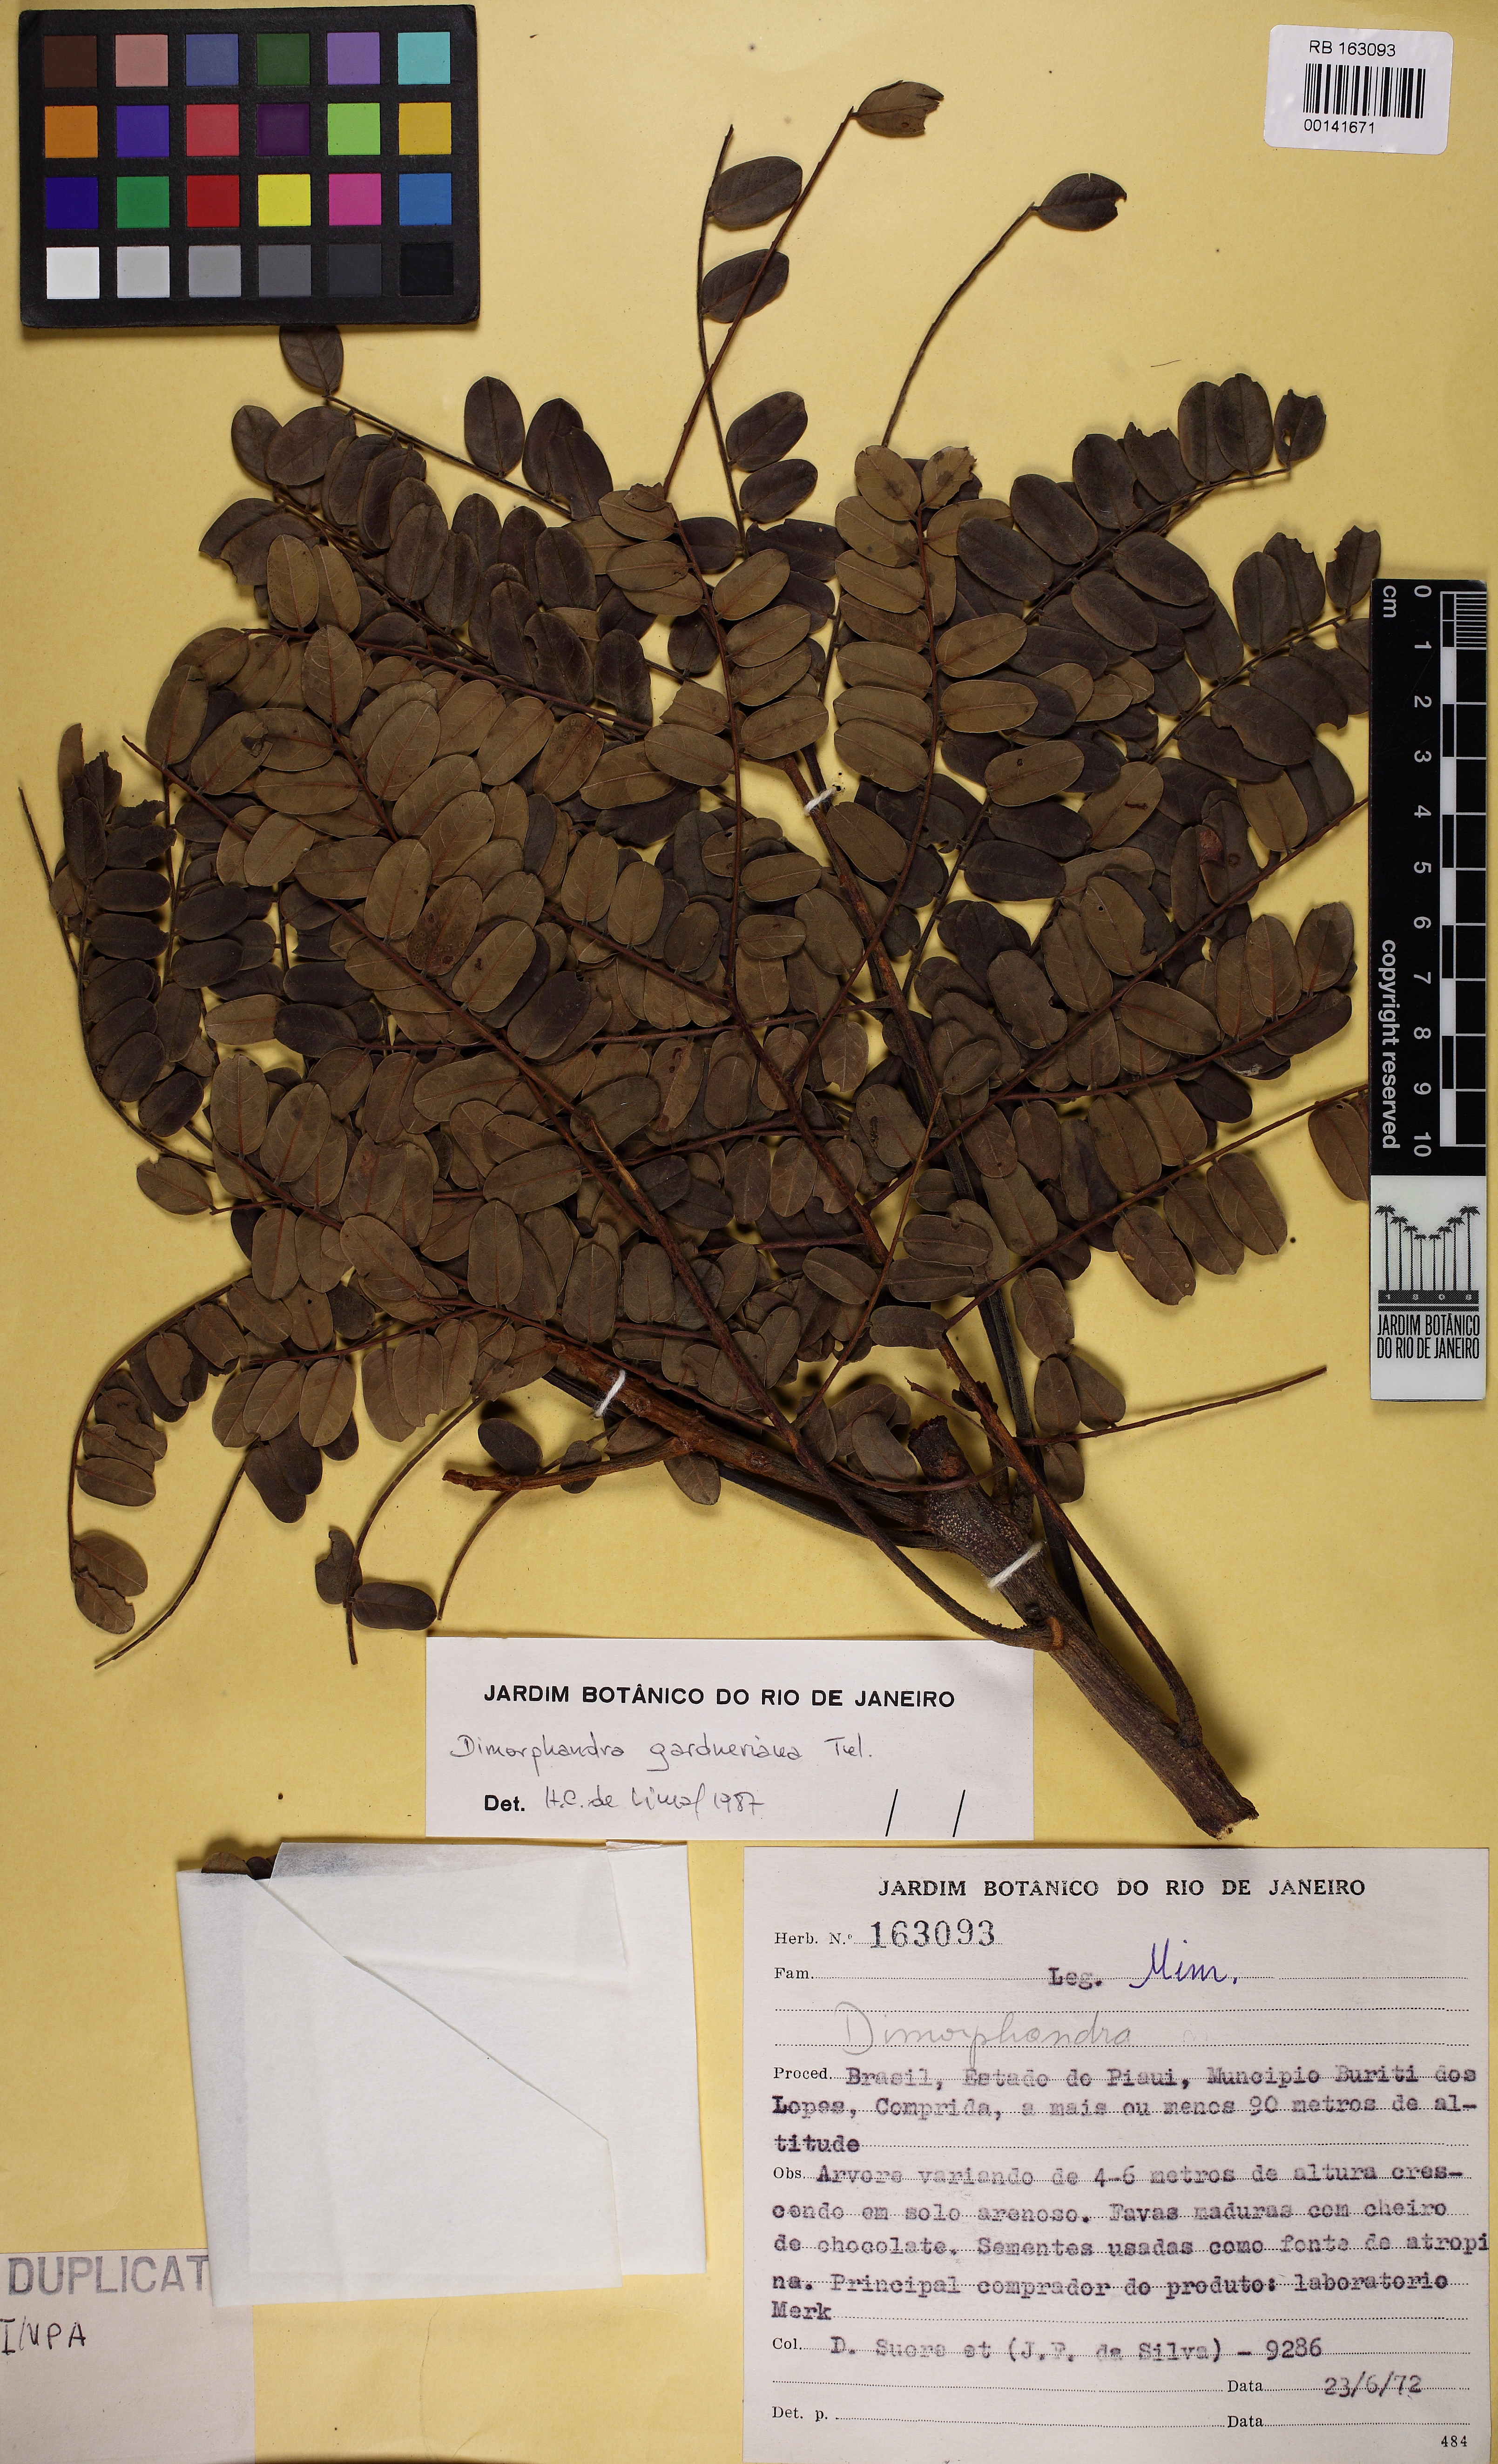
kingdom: Plantae
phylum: Tracheophyta
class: Magnoliopsida
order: Fabales
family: Fabaceae
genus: Dimorphandra
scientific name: Dimorphandra gardneriana
